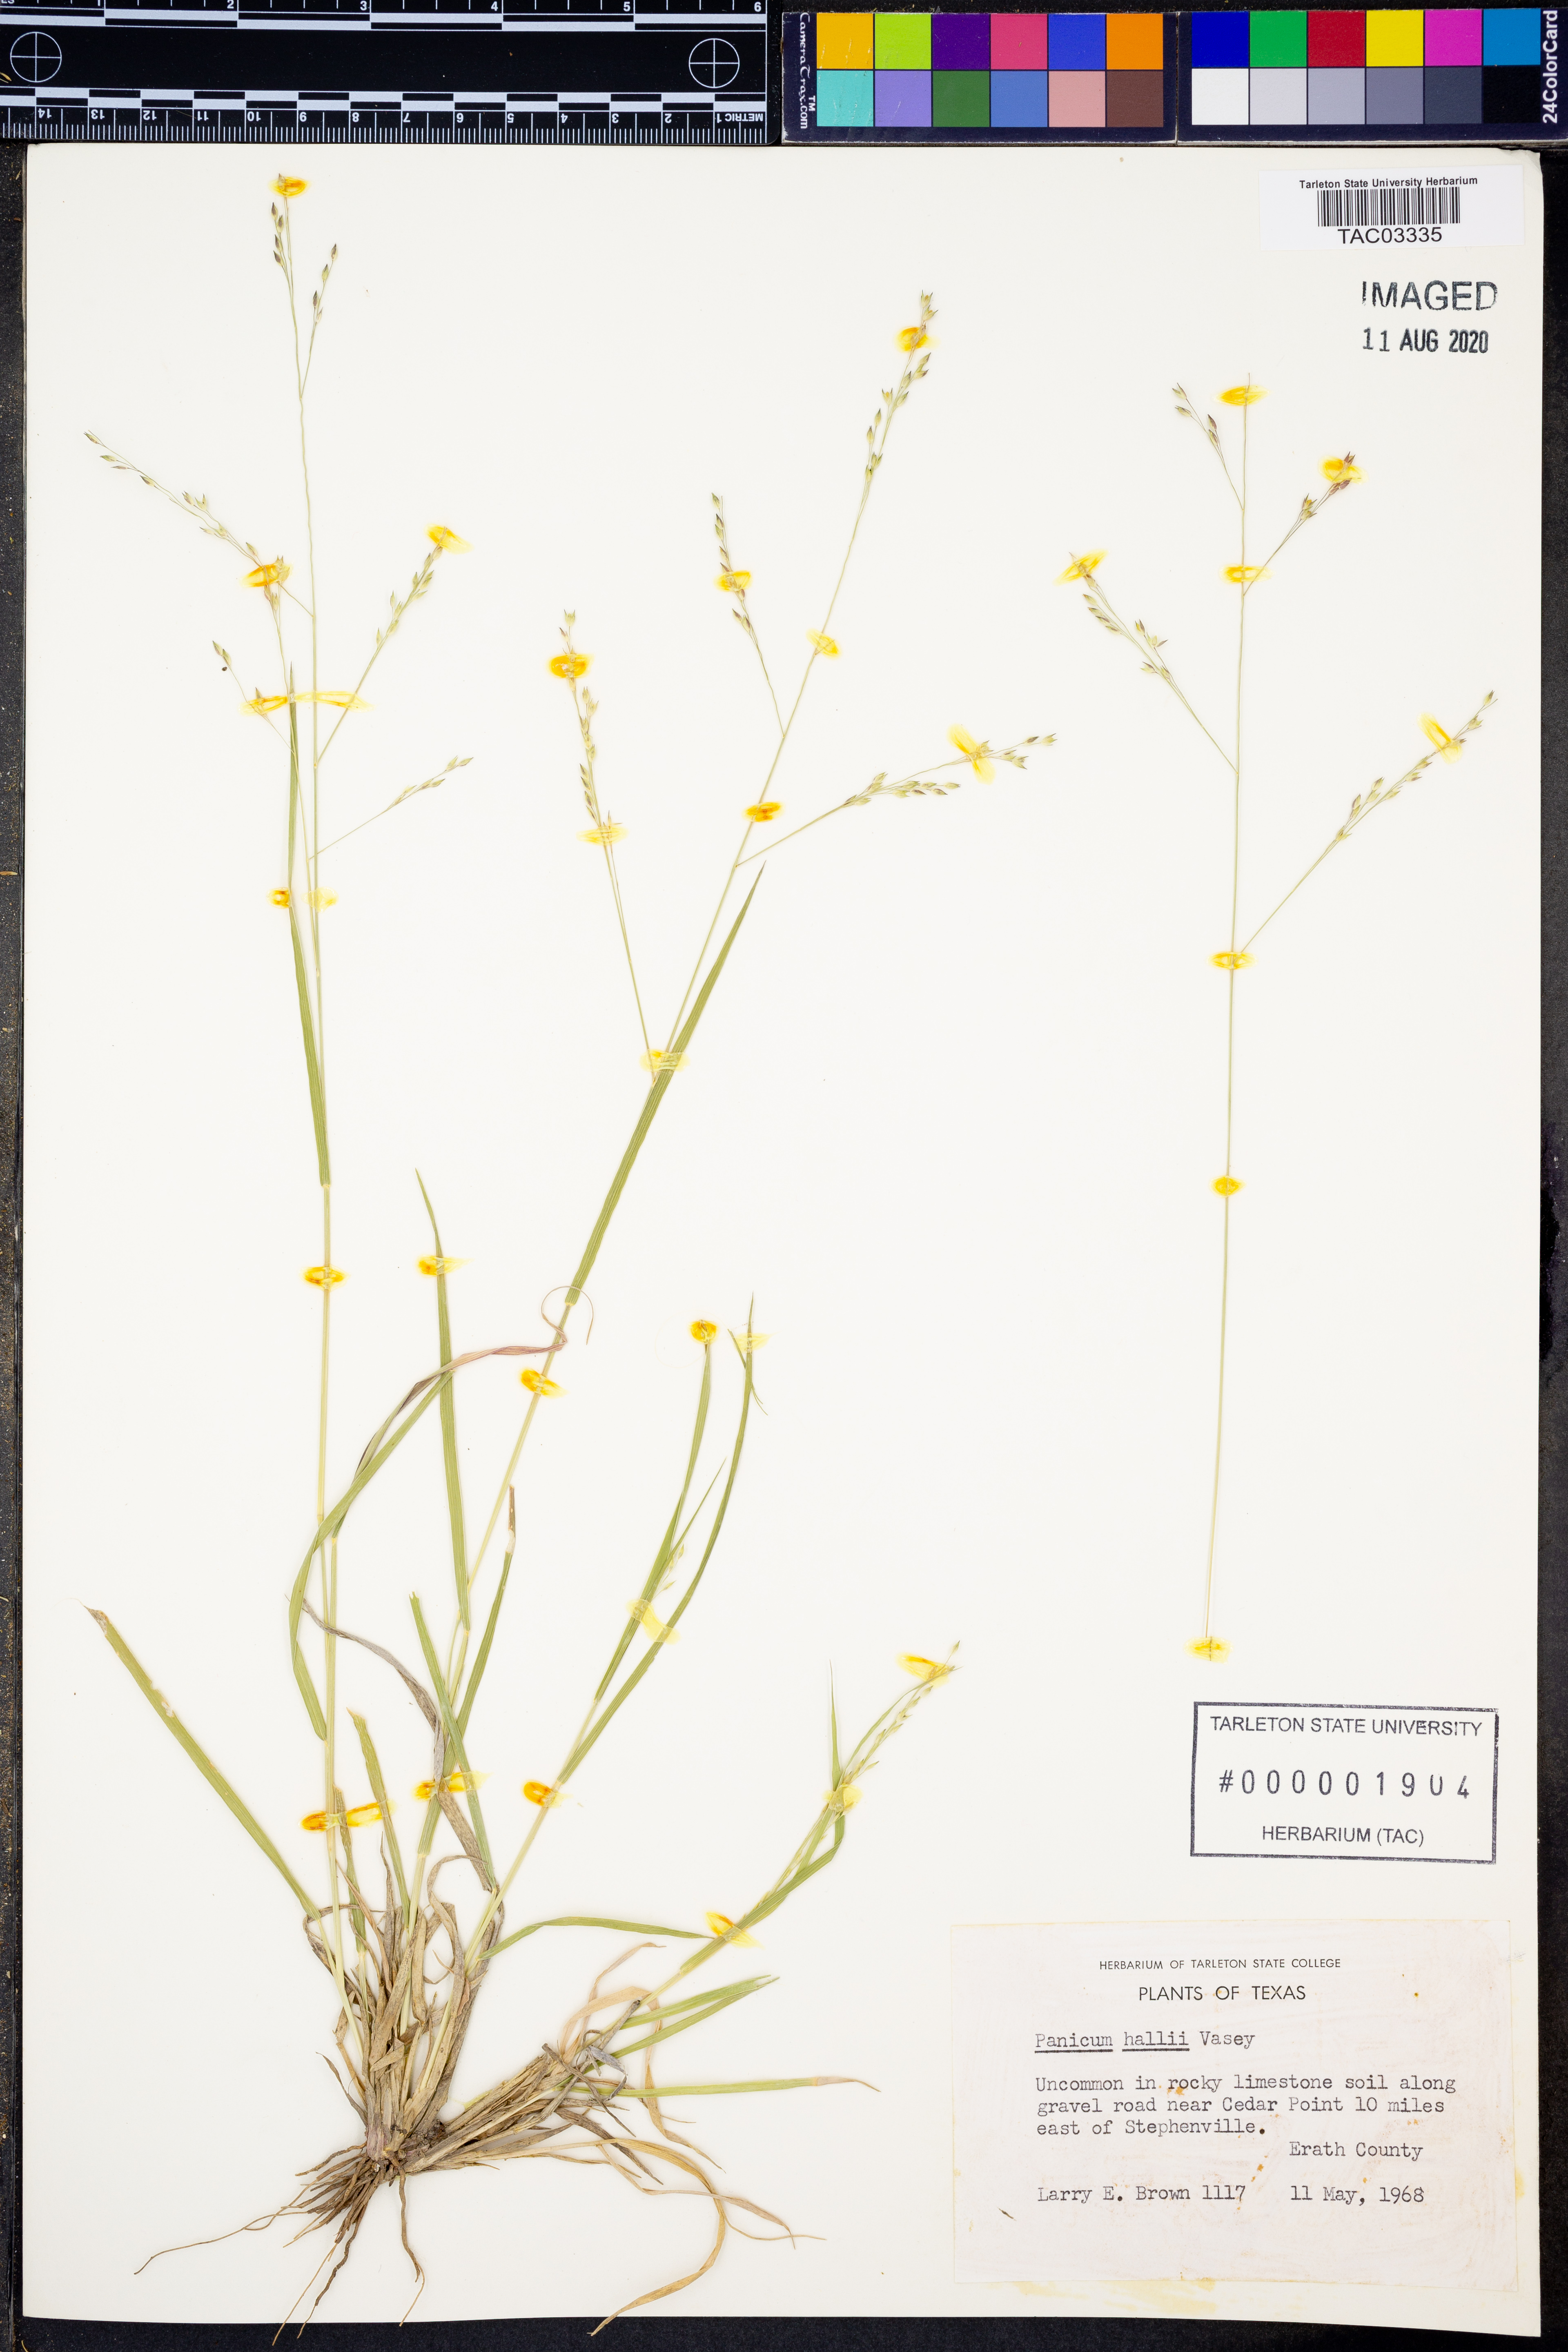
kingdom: Plantae
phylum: Tracheophyta
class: Liliopsida
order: Poales
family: Poaceae
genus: Panicum
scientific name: Panicum hallii
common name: Hall's witchgrass
